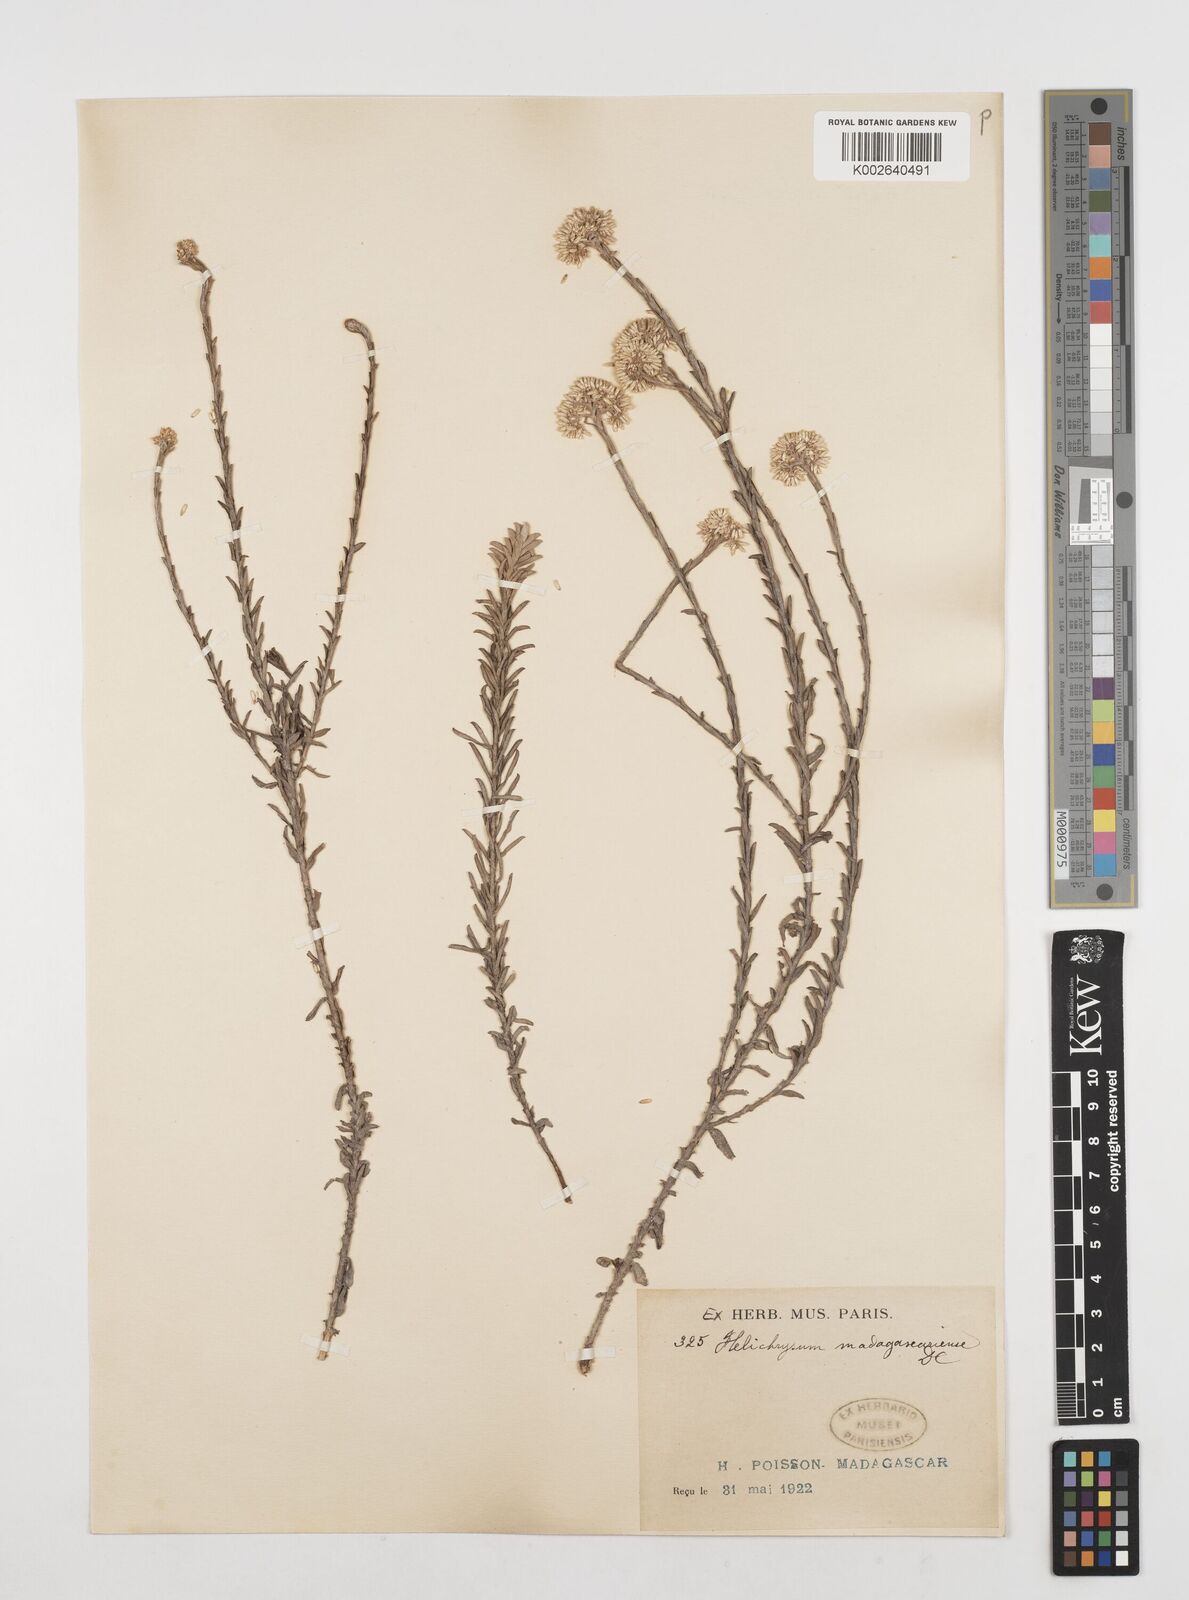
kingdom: Plantae
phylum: Tracheophyta
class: Magnoliopsida
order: Asterales
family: Asteraceae
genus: Helichrysum
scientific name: Helichrysum madagascariense
